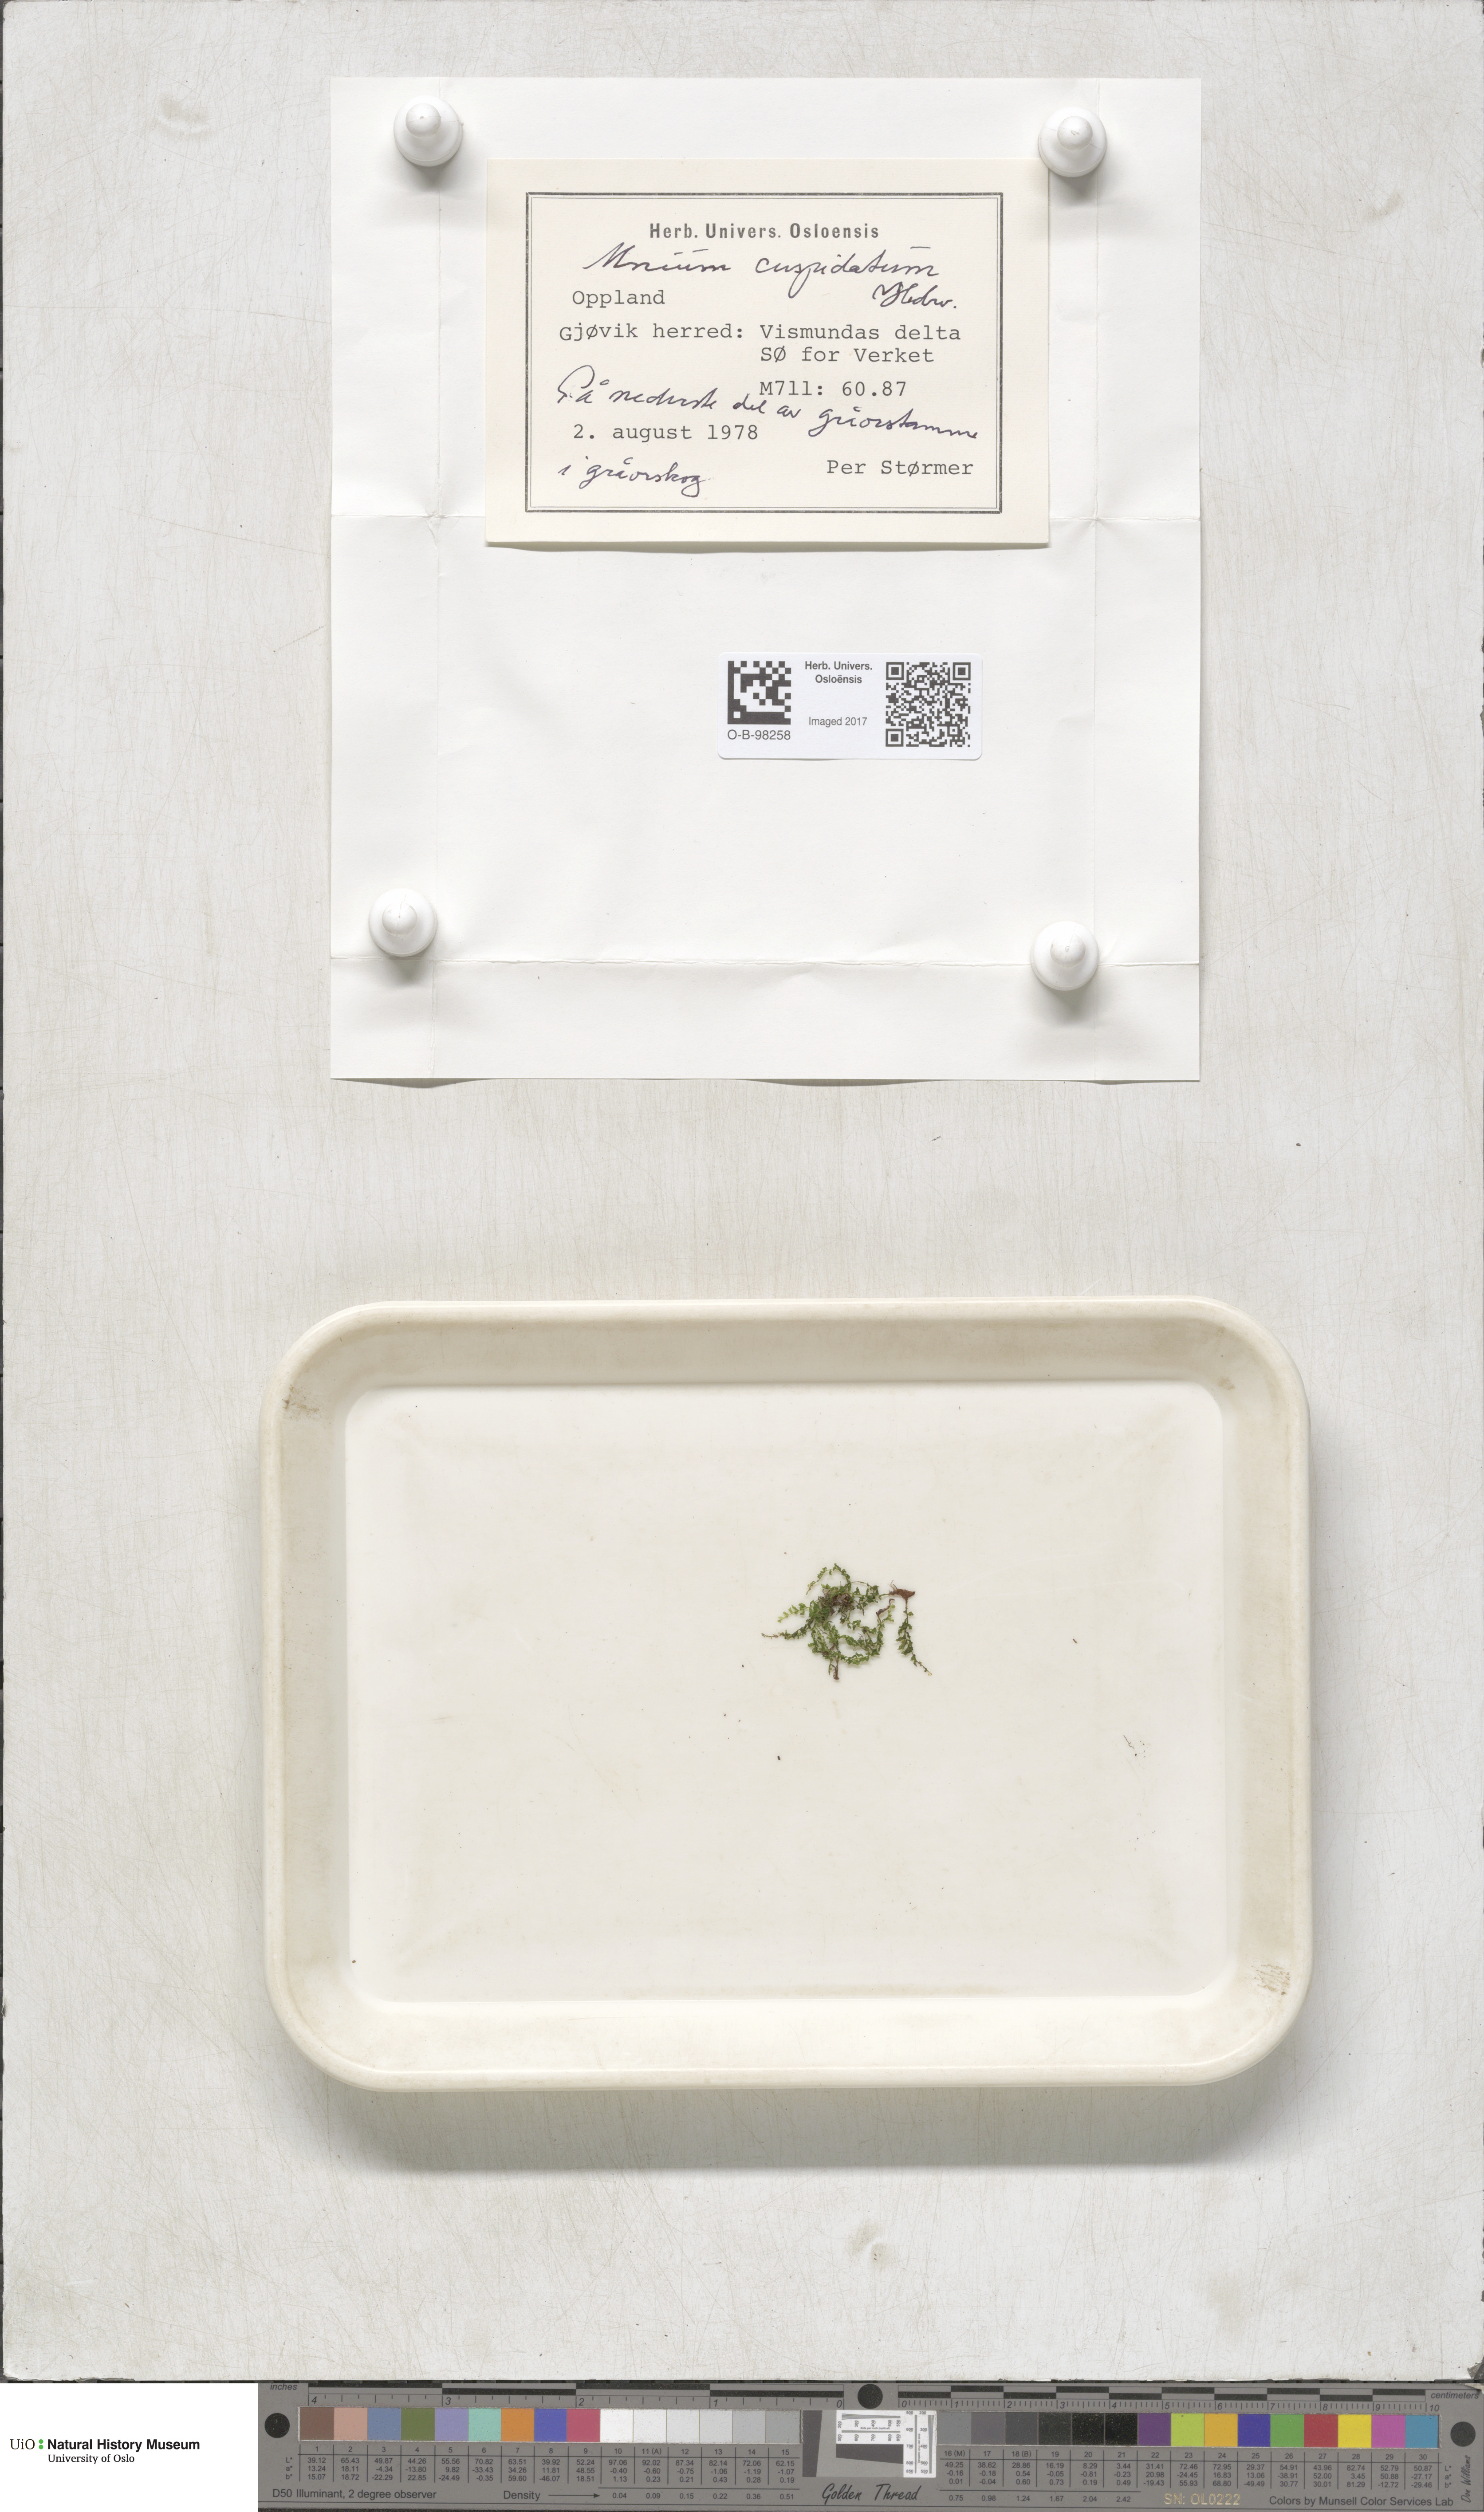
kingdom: Plantae
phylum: Bryophyta
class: Bryopsida
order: Bryales
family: Mniaceae
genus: Plagiomnium
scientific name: Plagiomnium cuspidatum
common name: Woodsy leafy moss
